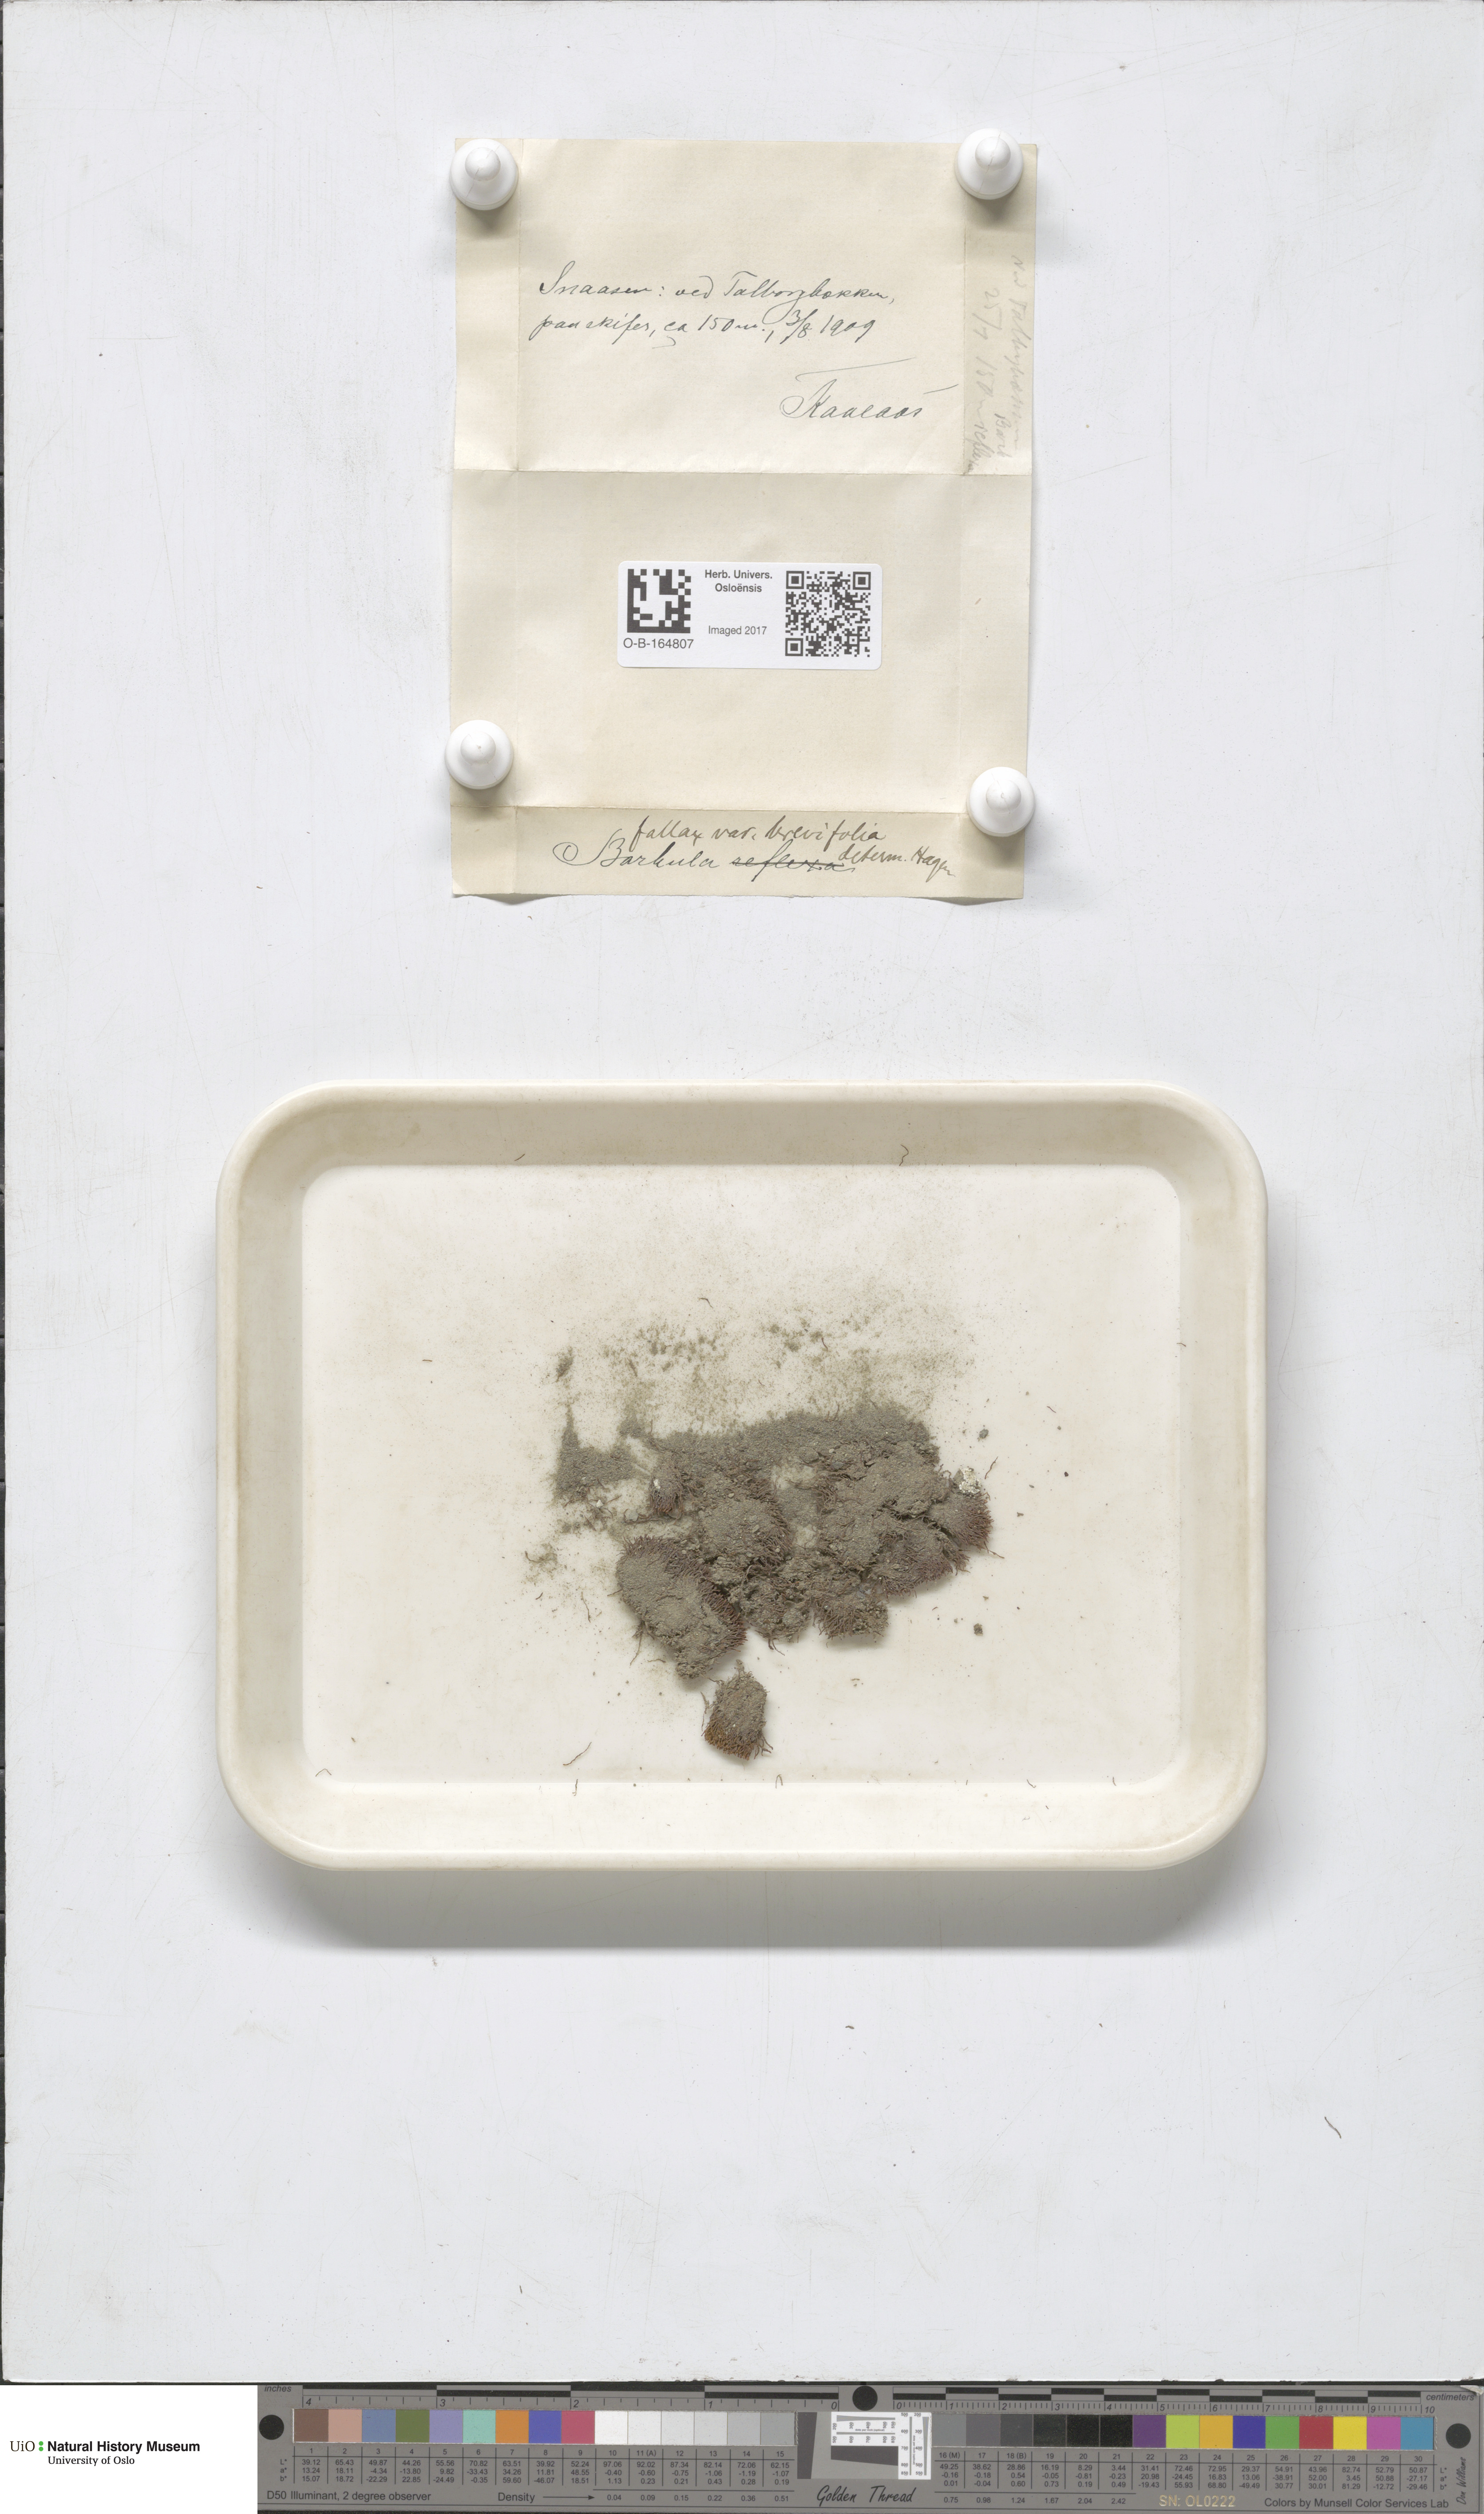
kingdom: Plantae
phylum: Bryophyta
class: Bryopsida
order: Pottiales
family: Pottiaceae
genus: Geheebia
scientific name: Geheebia fallax
